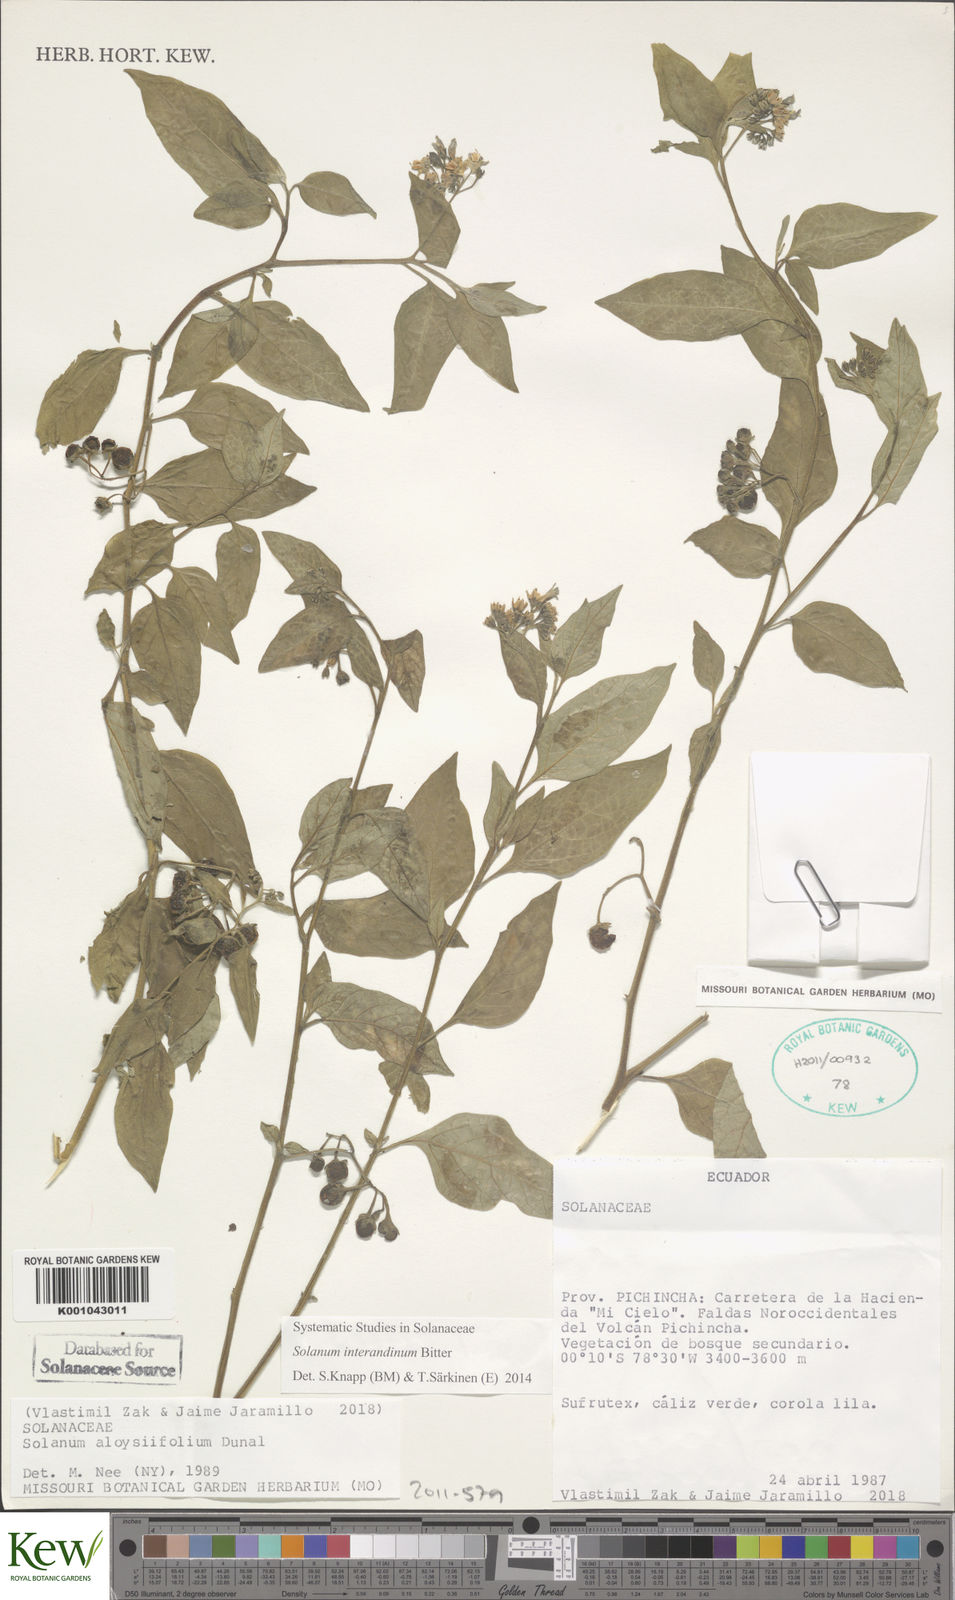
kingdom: Plantae
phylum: Tracheophyta
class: Magnoliopsida
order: Solanales
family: Solanaceae
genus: Solanum
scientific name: Solanum aloysiifolium
